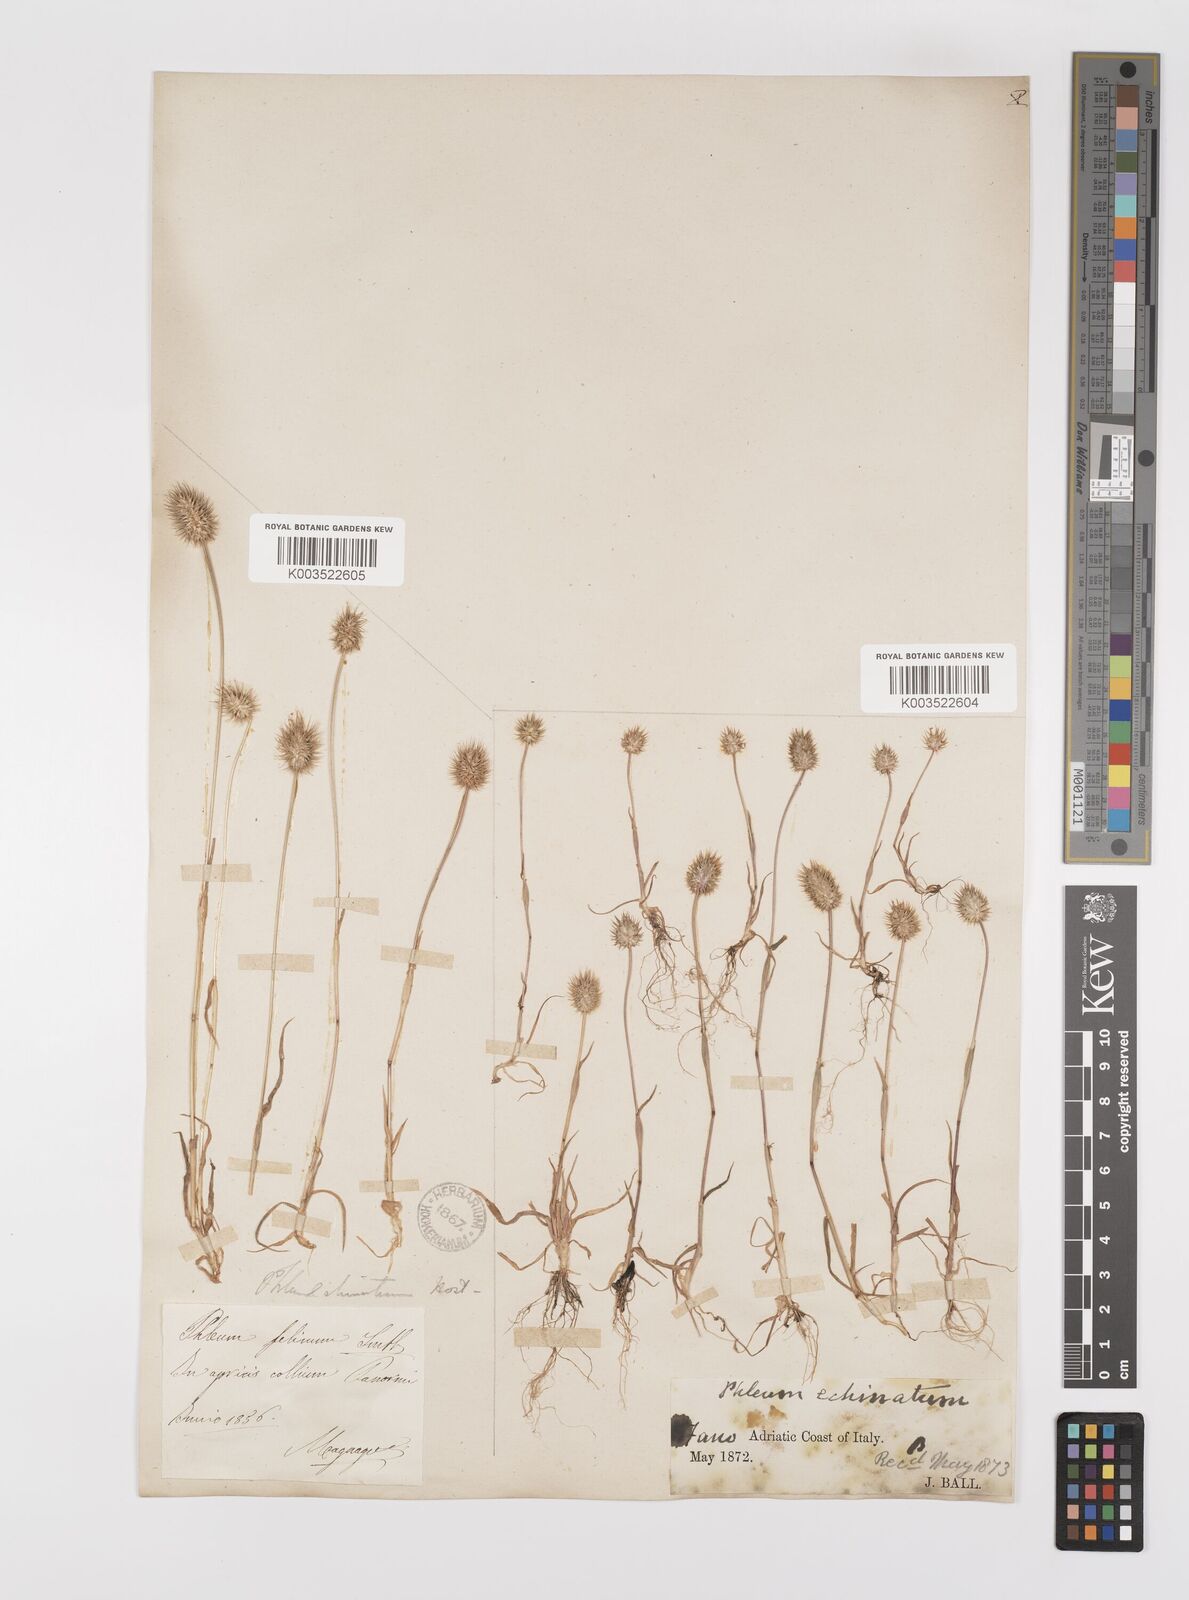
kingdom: Plantae
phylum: Tracheophyta
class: Liliopsida
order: Poales
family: Poaceae
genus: Phleum
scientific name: Phleum echinatum
